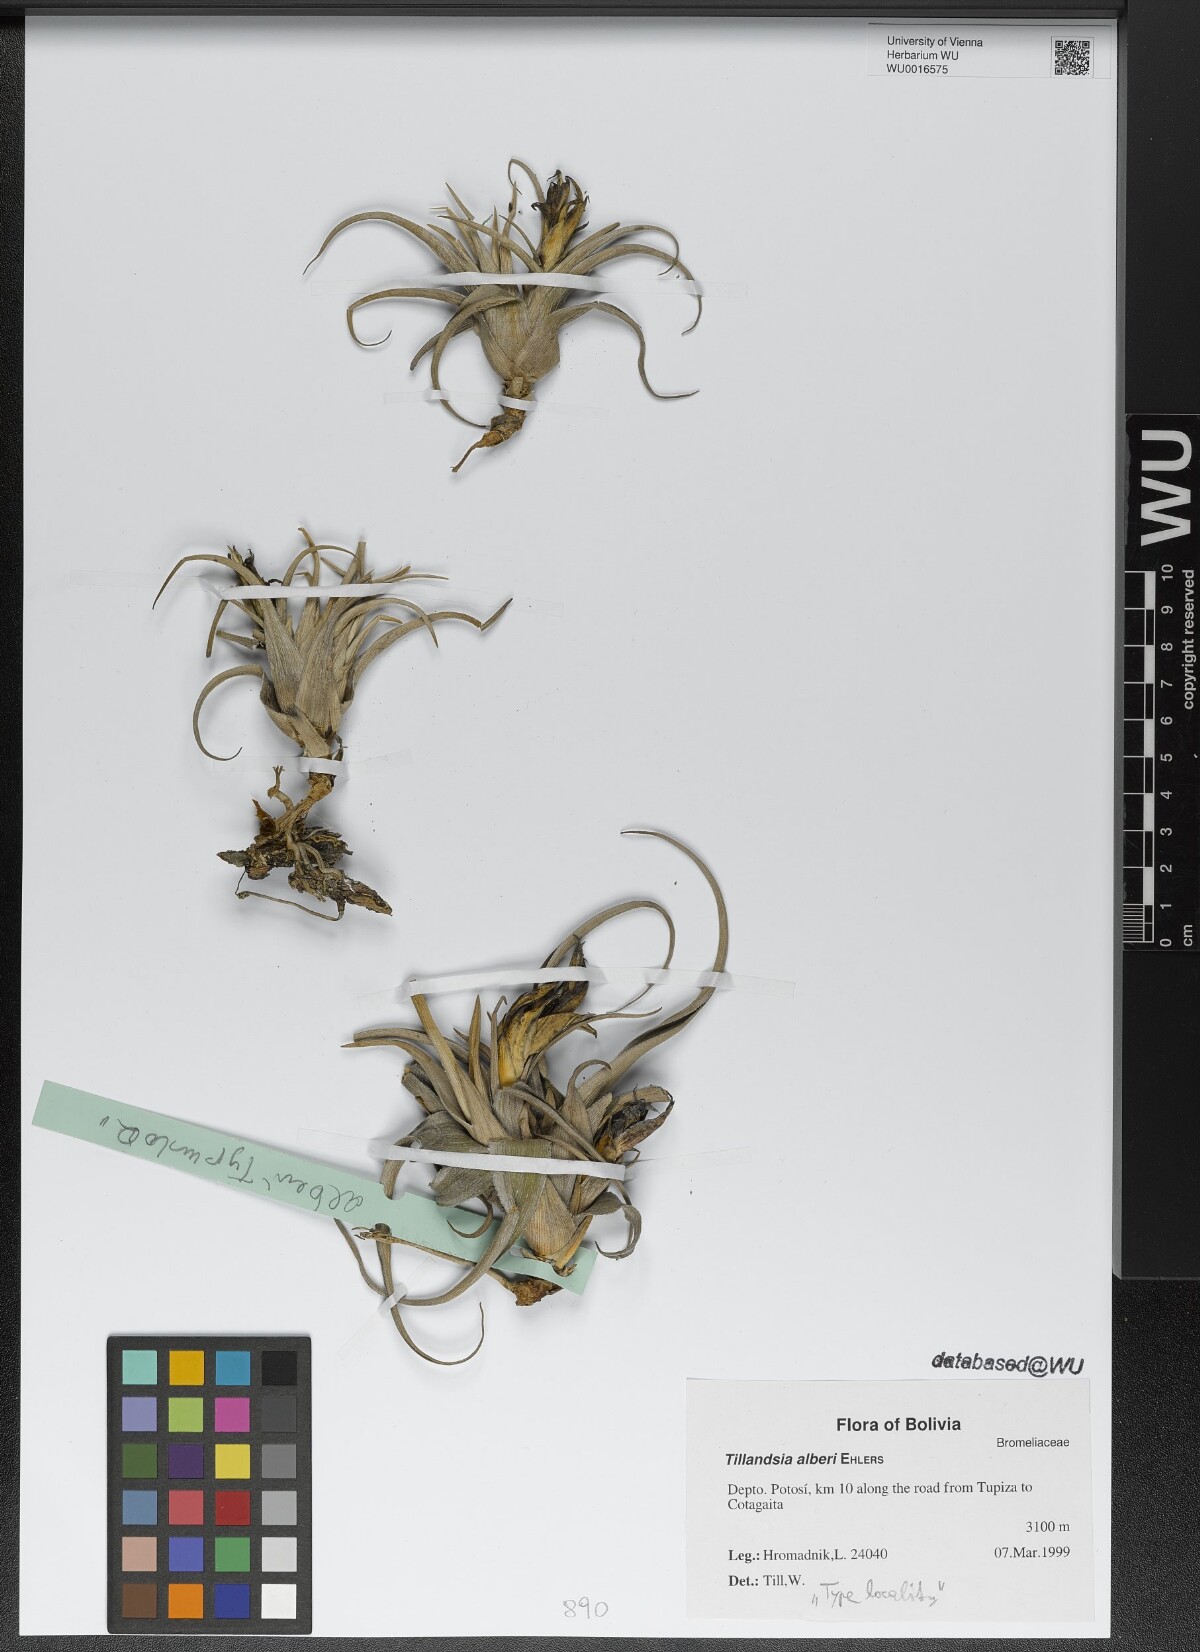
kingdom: Plantae
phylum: Tracheophyta
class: Liliopsida
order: Poales
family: Bromeliaceae
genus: Tillandsia
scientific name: Tillandsia muhriae
